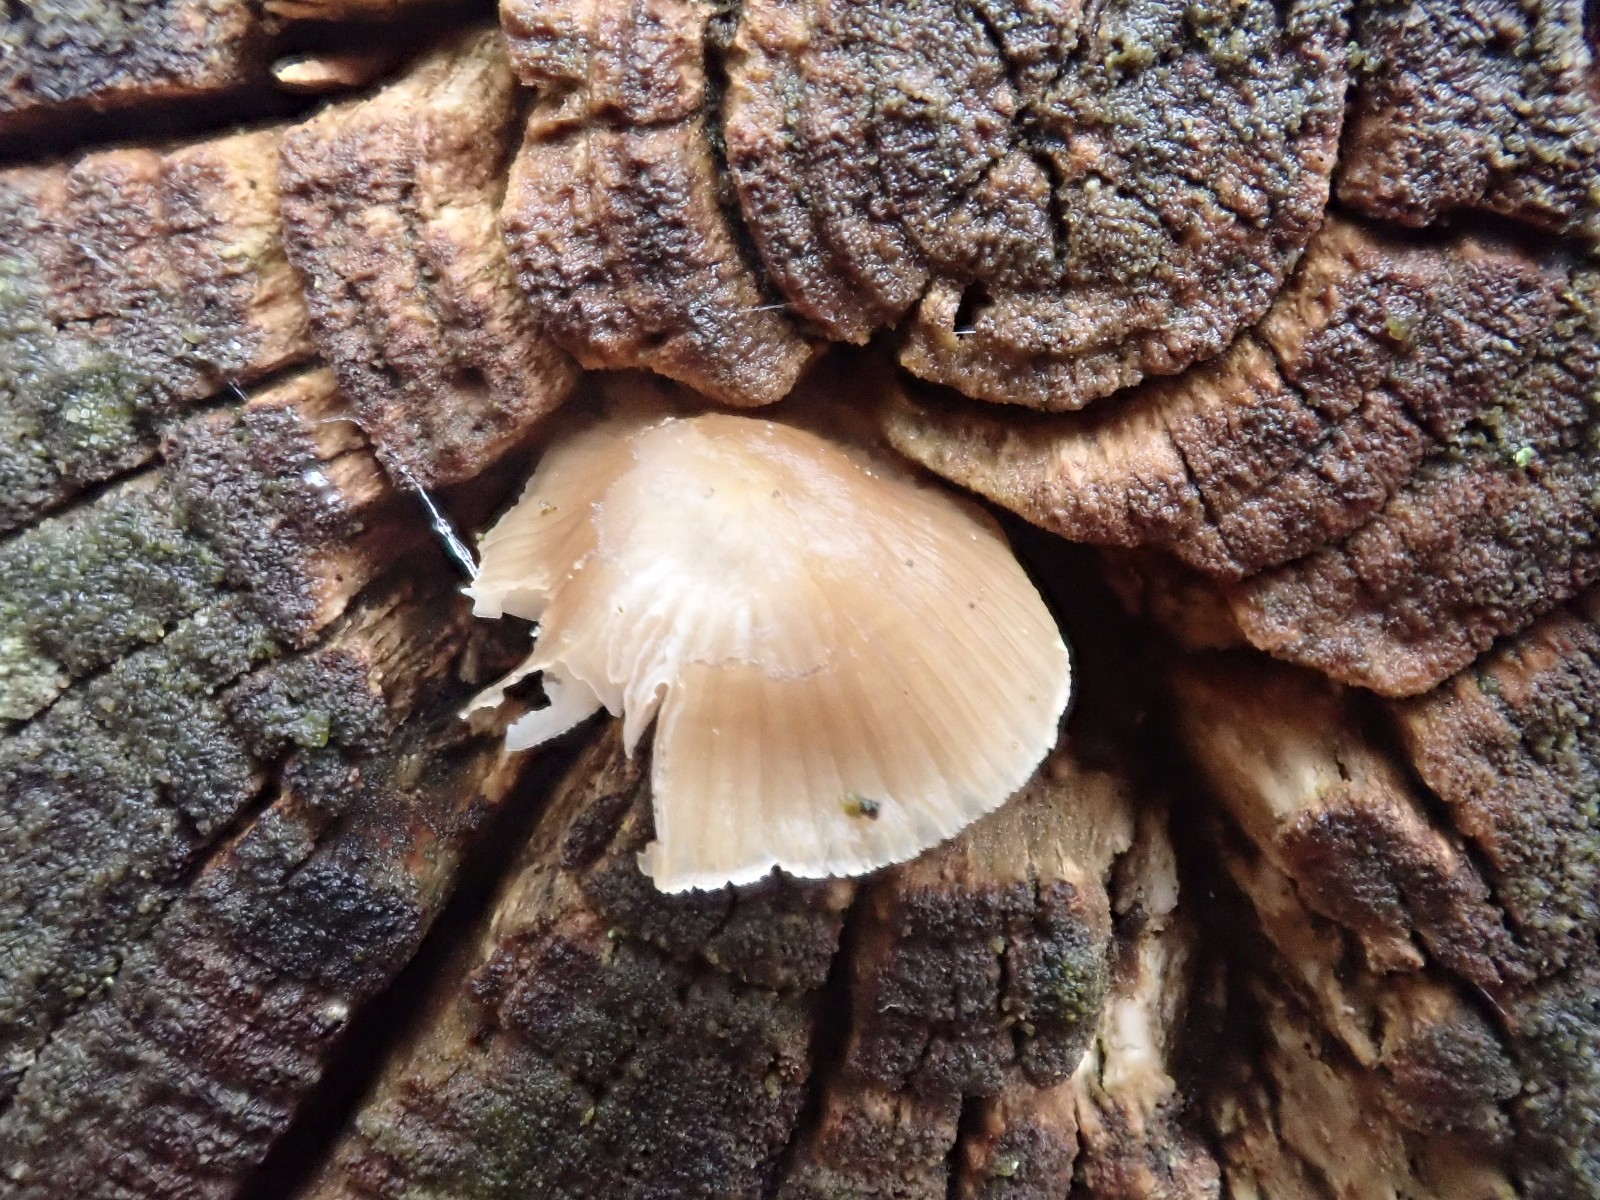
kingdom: Fungi
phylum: Basidiomycota
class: Agaricomycetes
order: Agaricales
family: Mycenaceae
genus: Mycena
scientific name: Mycena
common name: huesvamp
